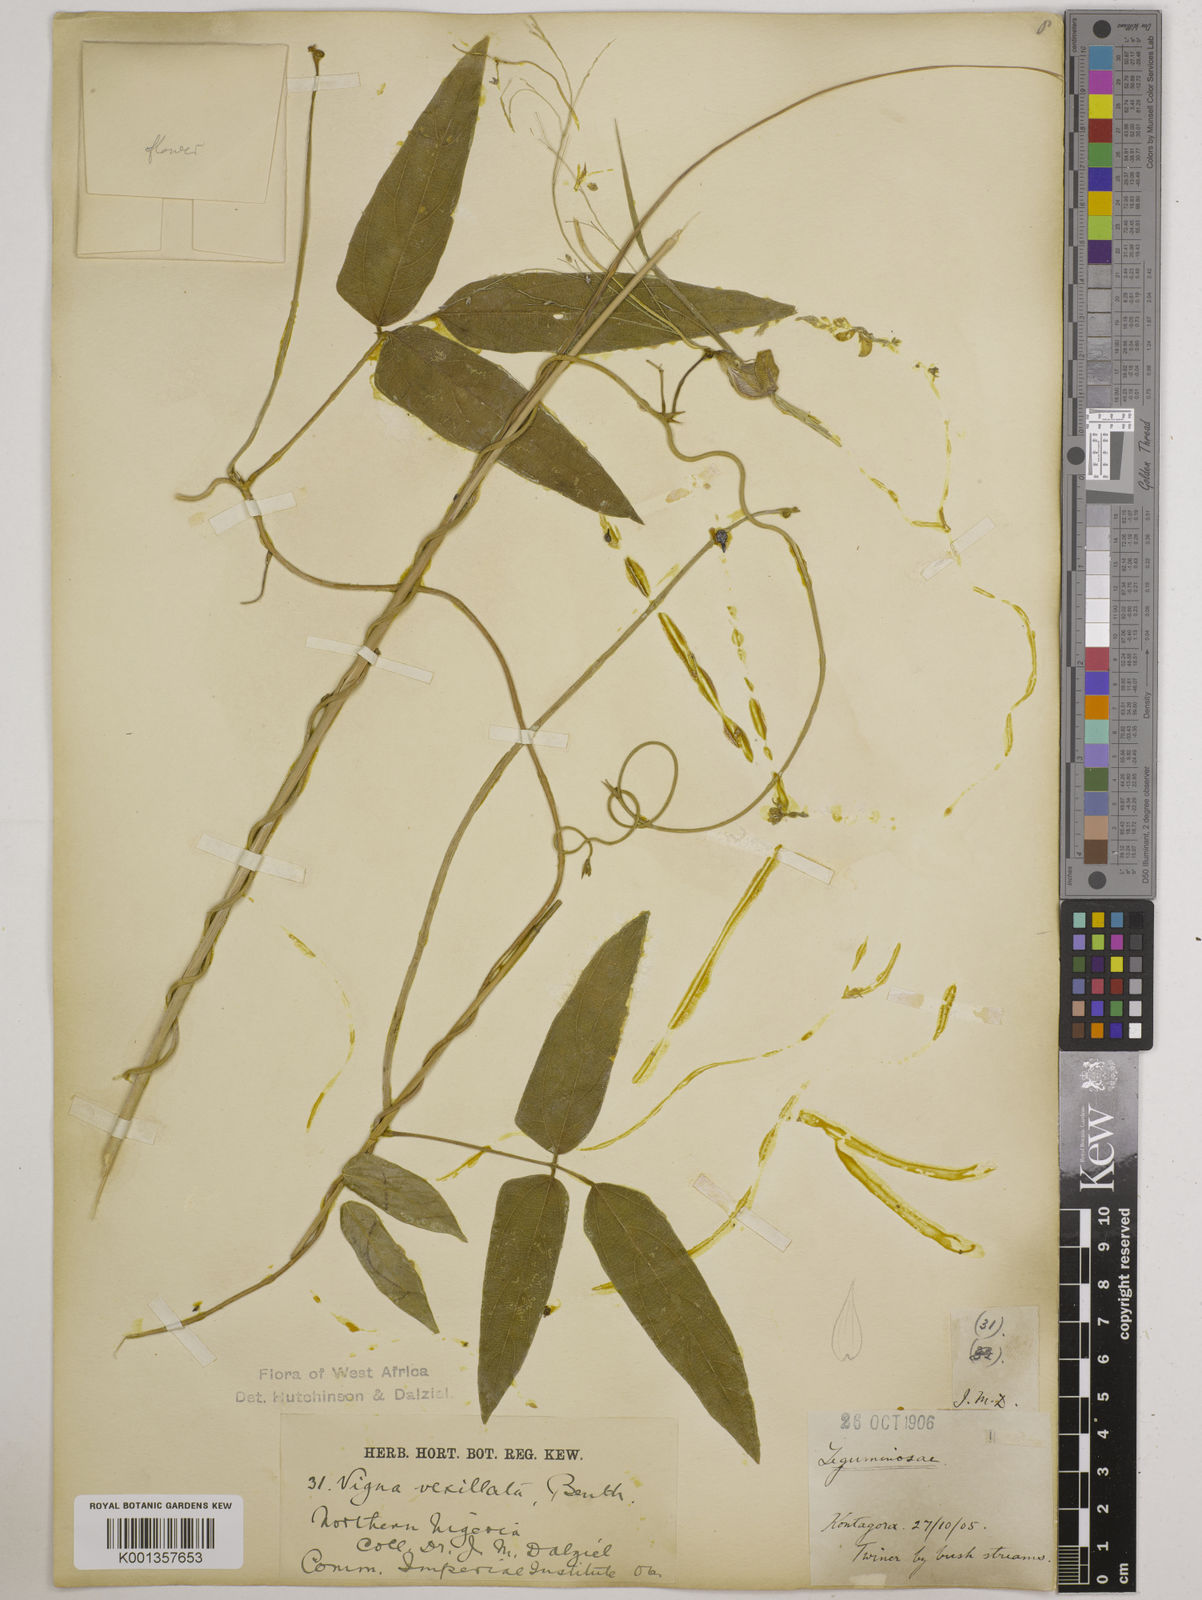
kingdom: Plantae
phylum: Tracheophyta
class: Magnoliopsida
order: Fabales
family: Fabaceae
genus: Vigna
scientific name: Vigna vexillata
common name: Zombi pea
